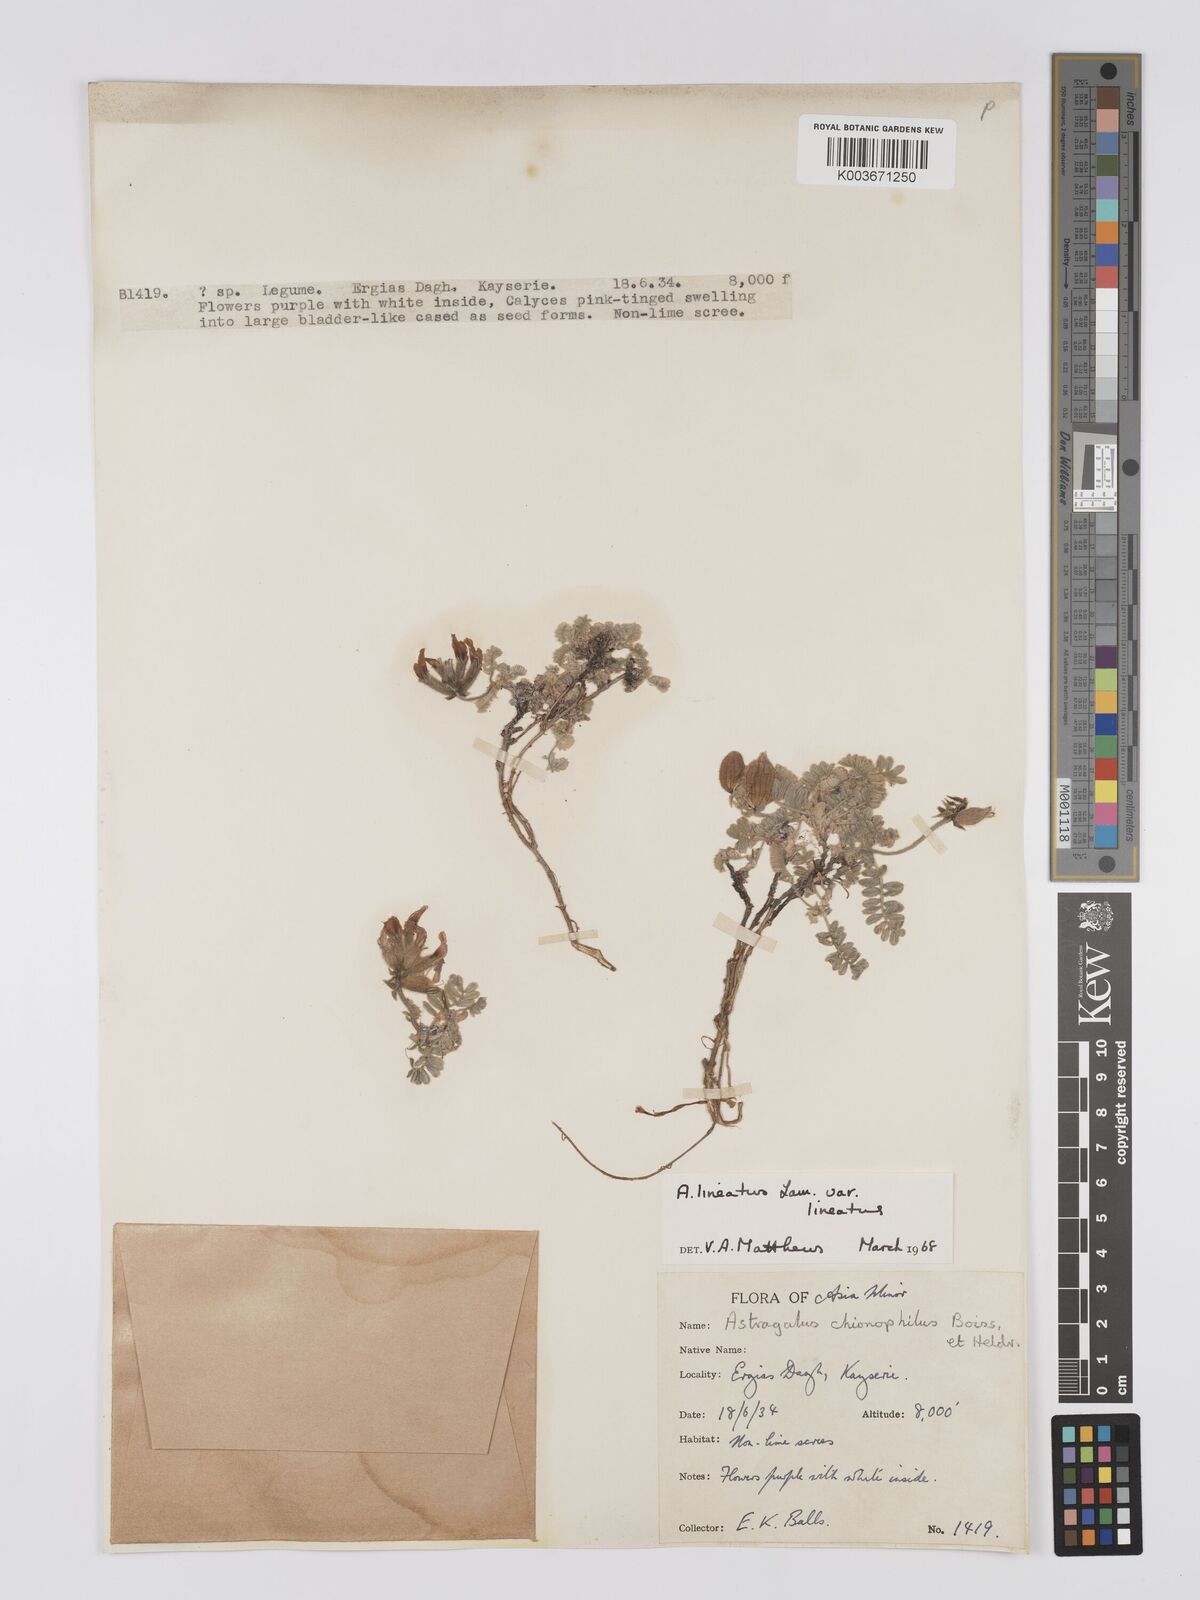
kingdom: Plantae
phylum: Tracheophyta
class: Magnoliopsida
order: Fabales
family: Fabaceae
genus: Astragalus
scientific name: Astragalus lineatus
